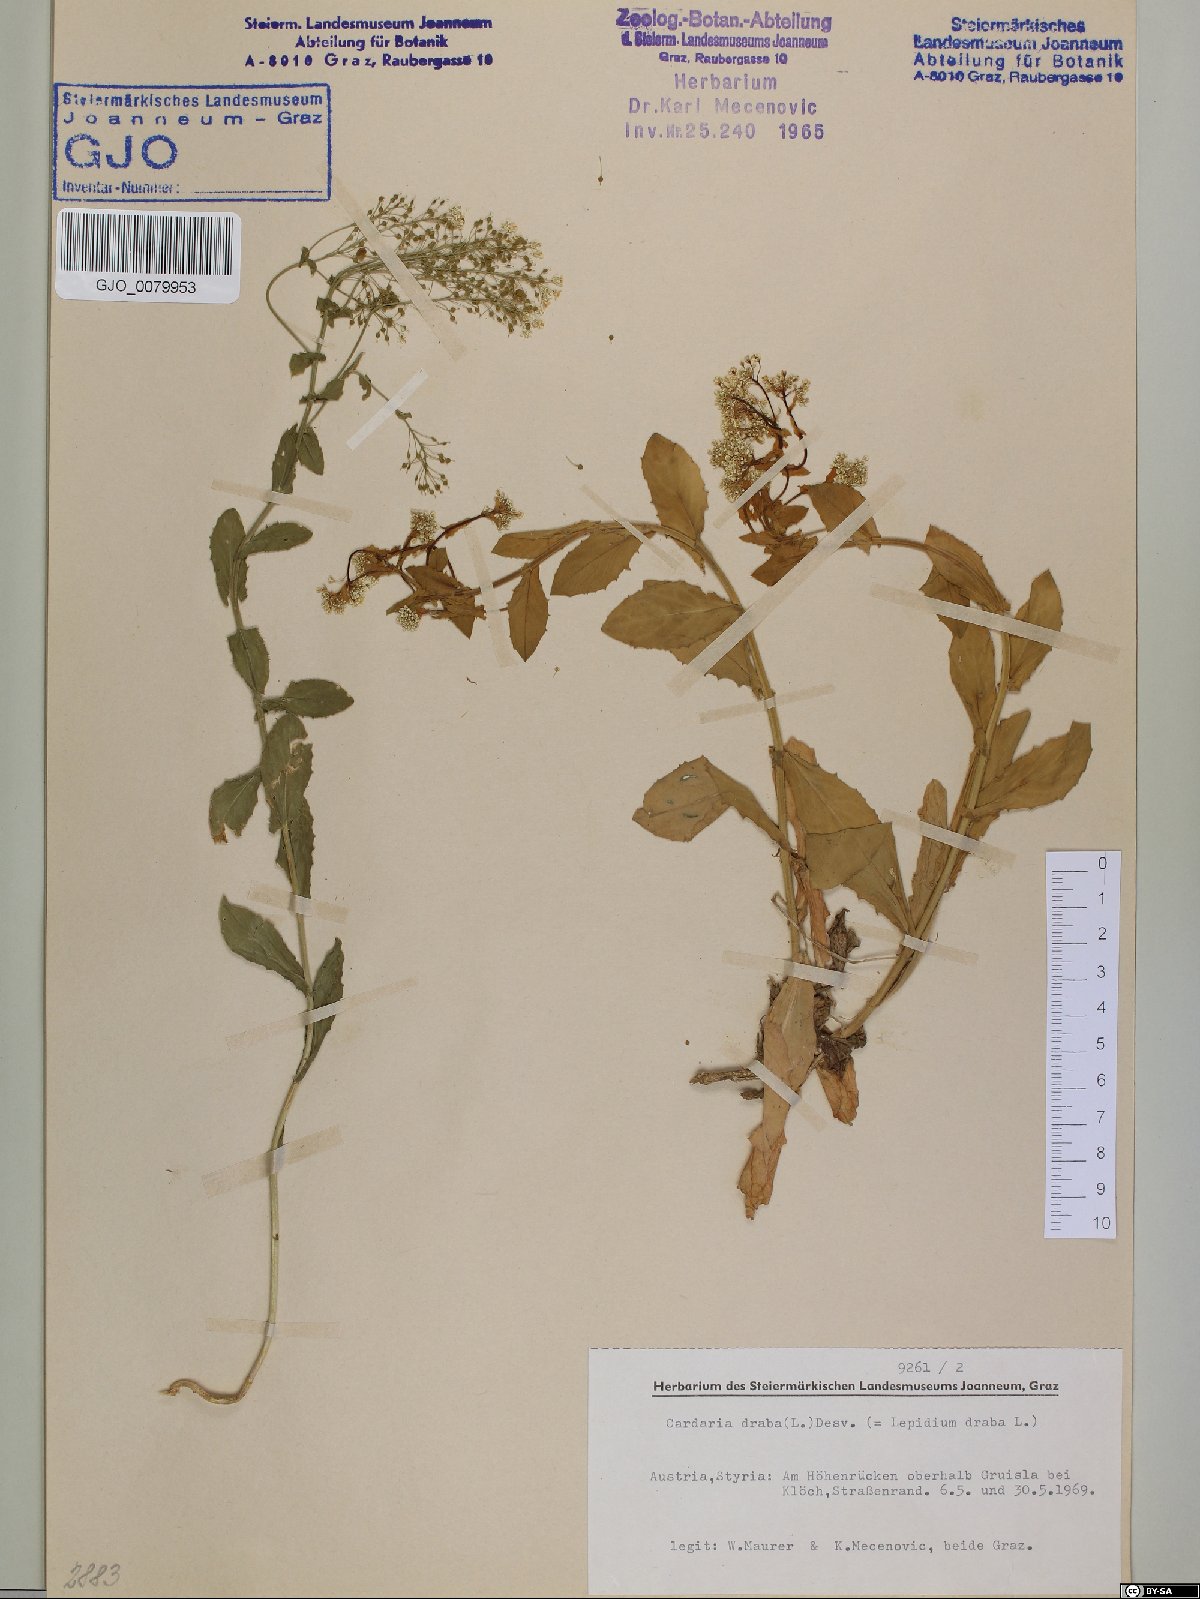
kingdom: Plantae
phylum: Tracheophyta
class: Magnoliopsida
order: Brassicales
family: Brassicaceae
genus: Lepidium
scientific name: Lepidium draba
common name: Hoary cress
